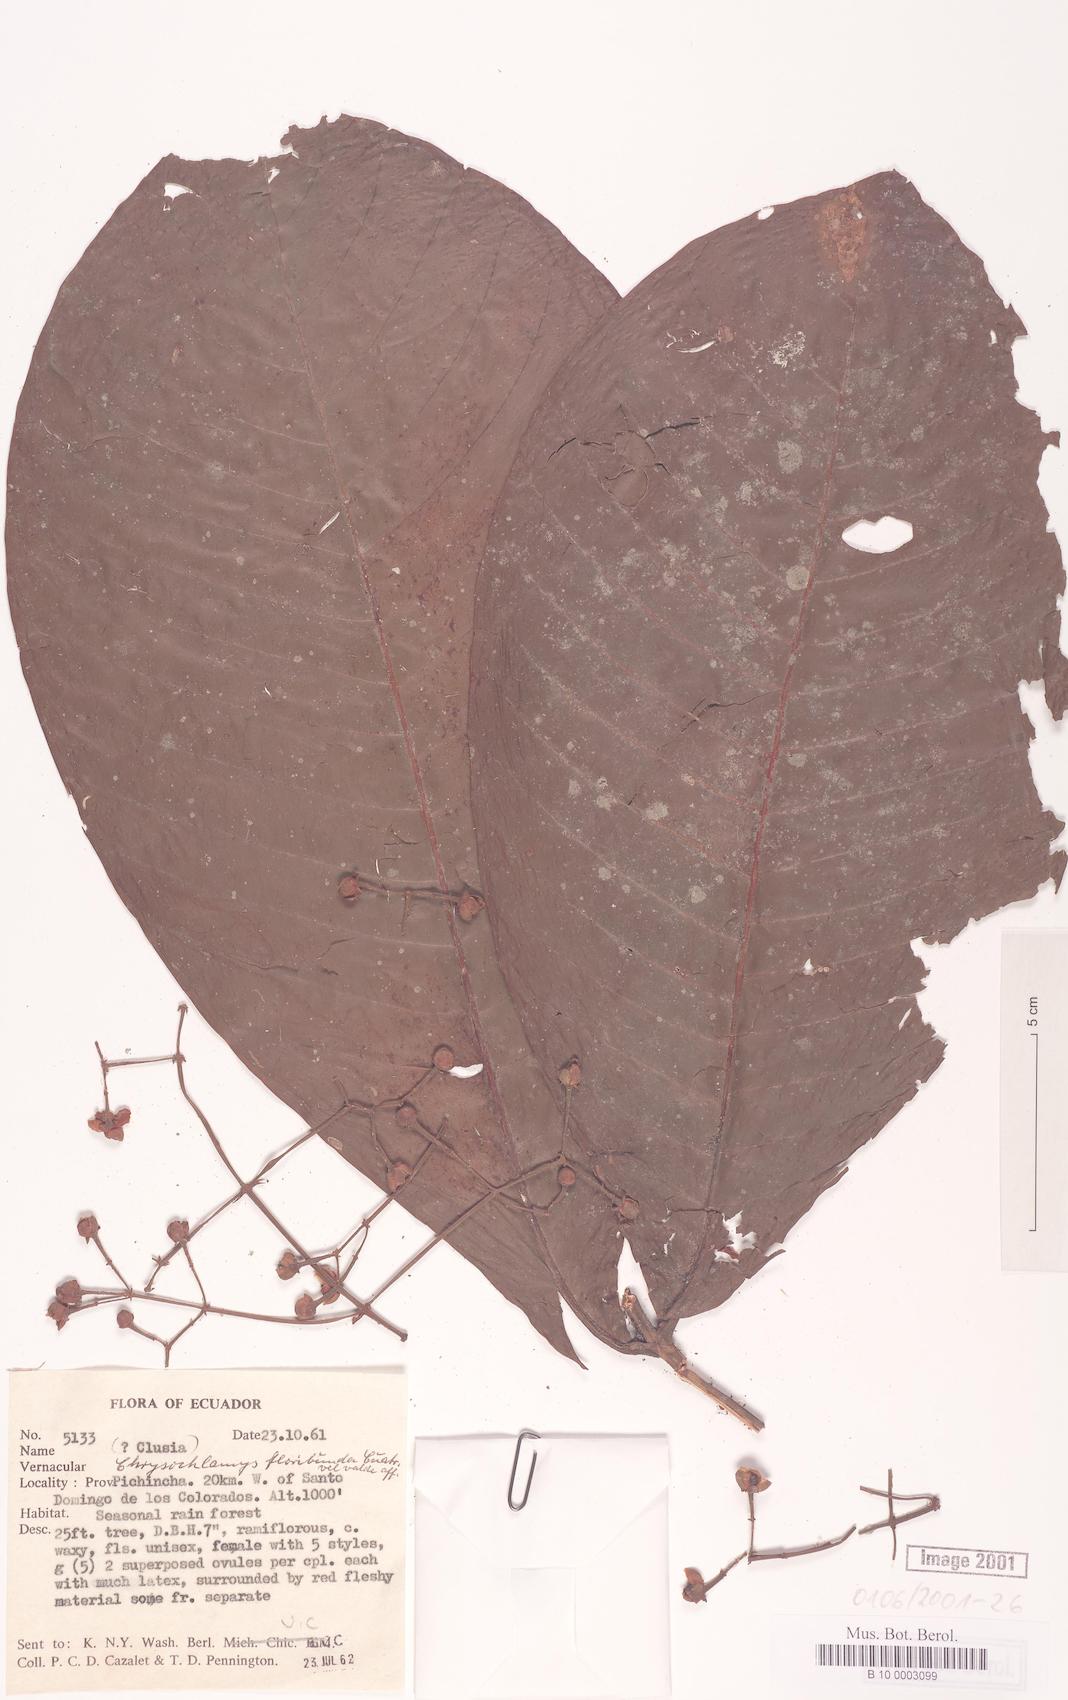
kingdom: Plantae
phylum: Tracheophyta
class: Magnoliopsida
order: Malpighiales
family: Clusiaceae
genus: Chrysochlamys
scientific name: Chrysochlamys floribunda
